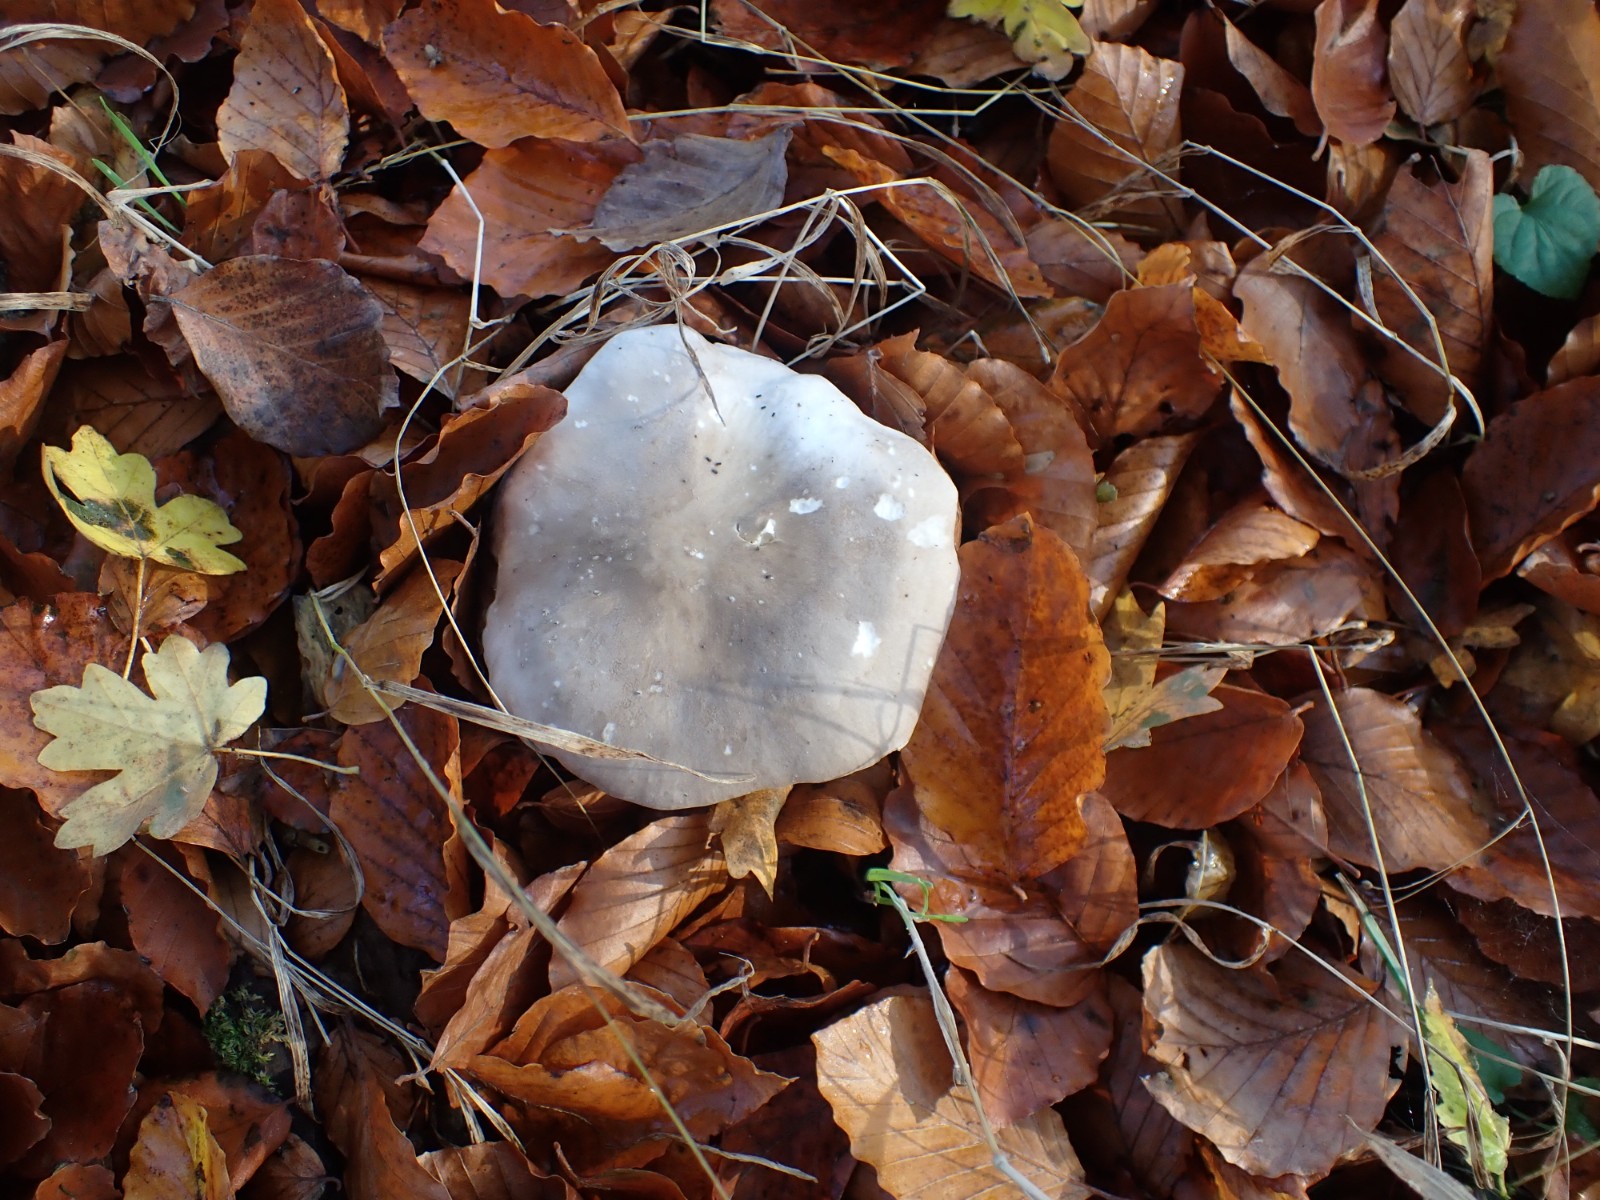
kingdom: Fungi
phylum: Basidiomycota
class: Agaricomycetes
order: Agaricales
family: Tricholomataceae
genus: Clitocybe
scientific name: Clitocybe nebularis
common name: tåge-tragthat
